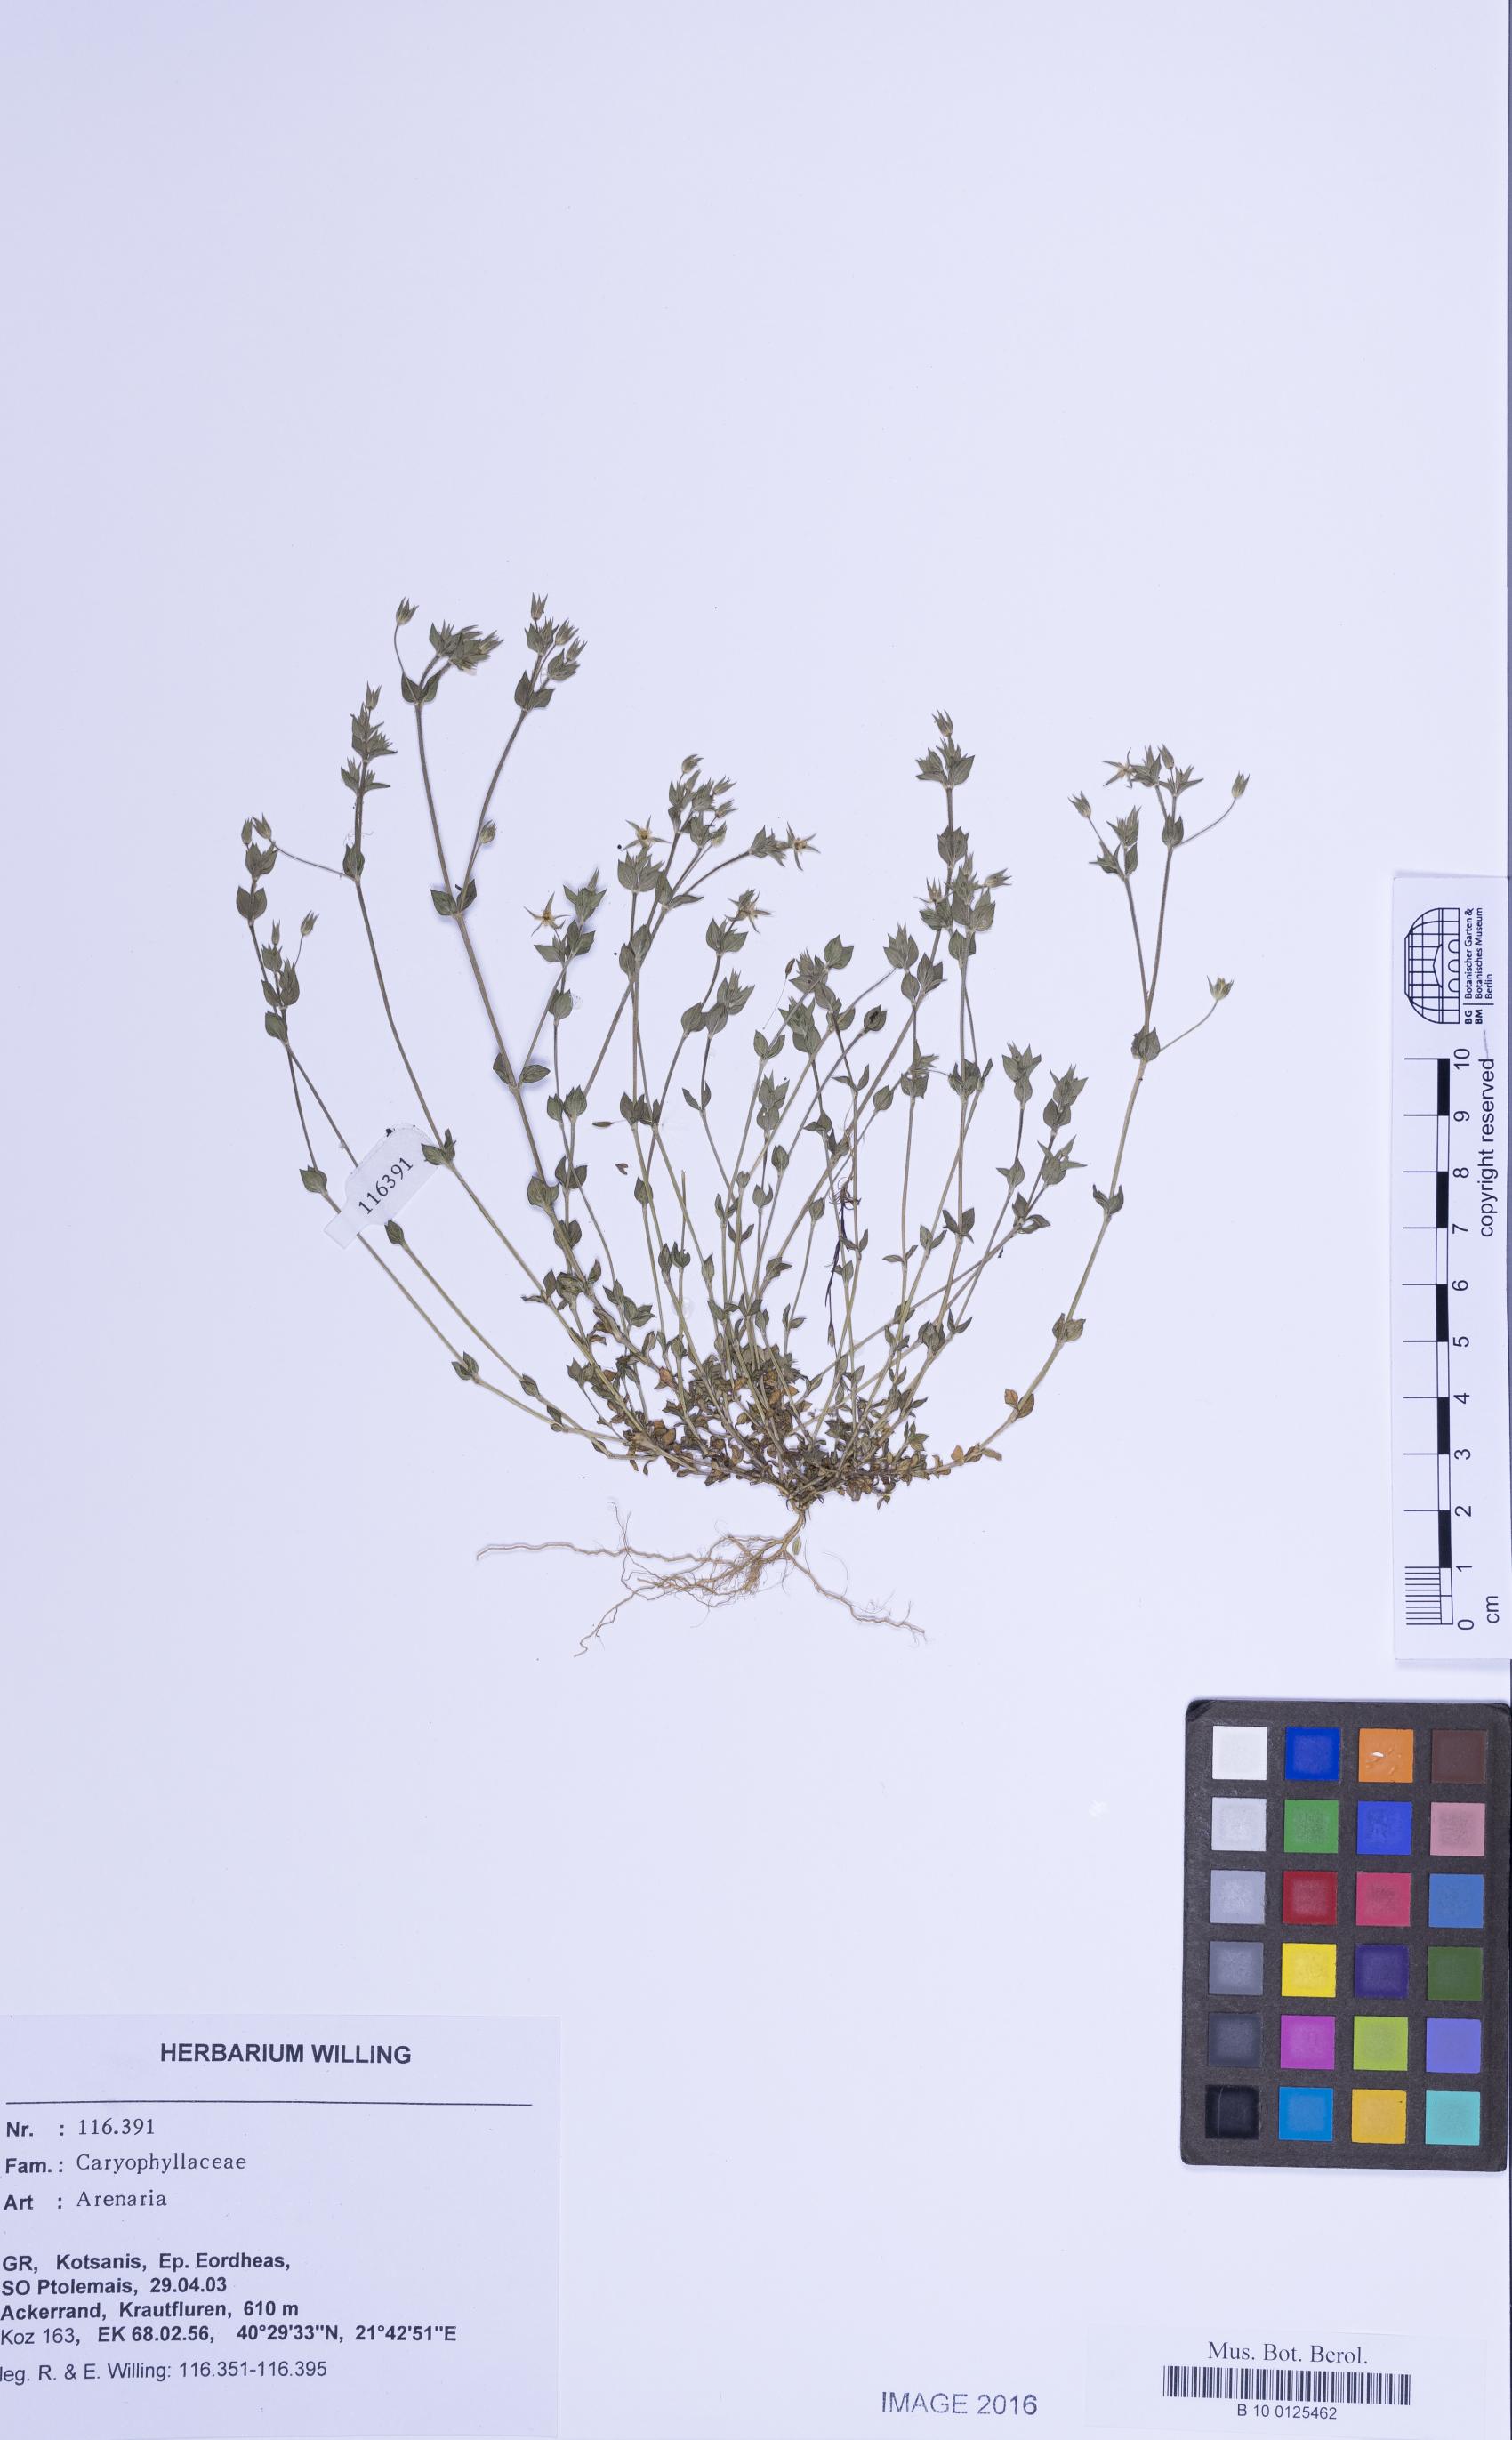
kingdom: Plantae
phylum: Tracheophyta
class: Magnoliopsida
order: Caryophyllales
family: Caryophyllaceae
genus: Arenaria
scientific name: Arenaria
